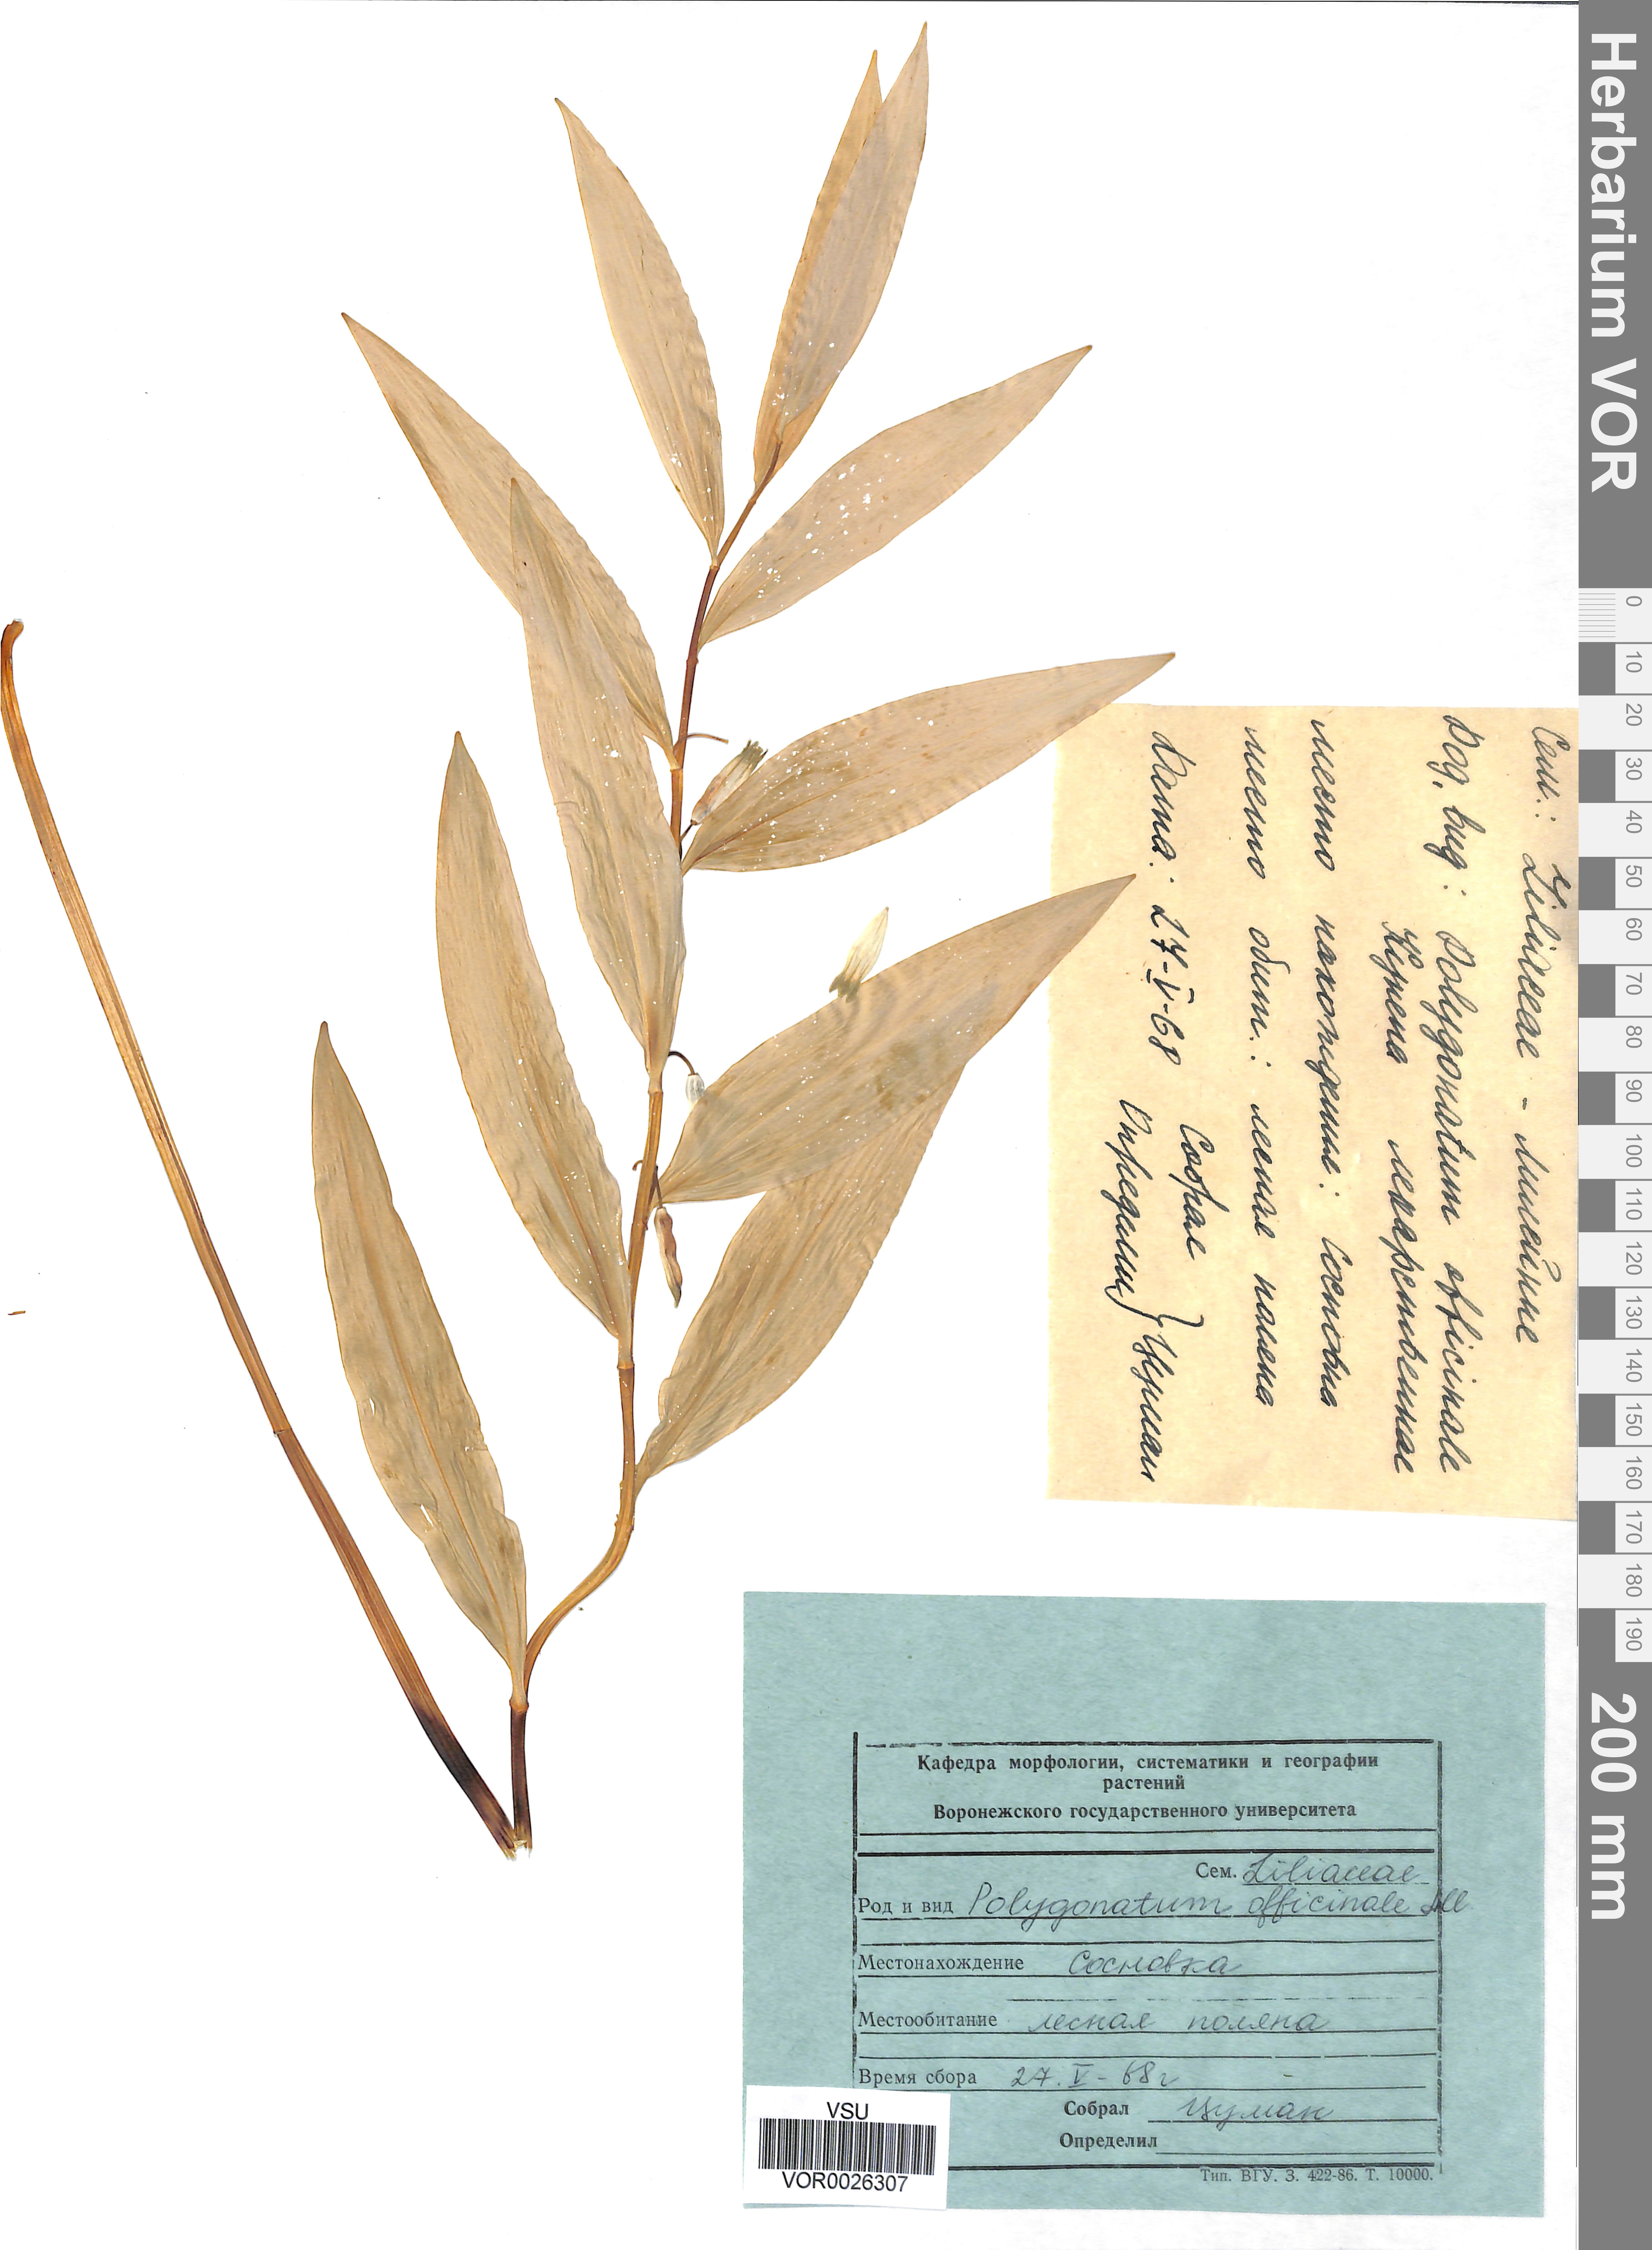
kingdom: Plantae
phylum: Tracheophyta
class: Liliopsida
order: Asparagales
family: Asparagaceae
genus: Polygonatum
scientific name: Polygonatum odoratum
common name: Angular solomon's-seal
